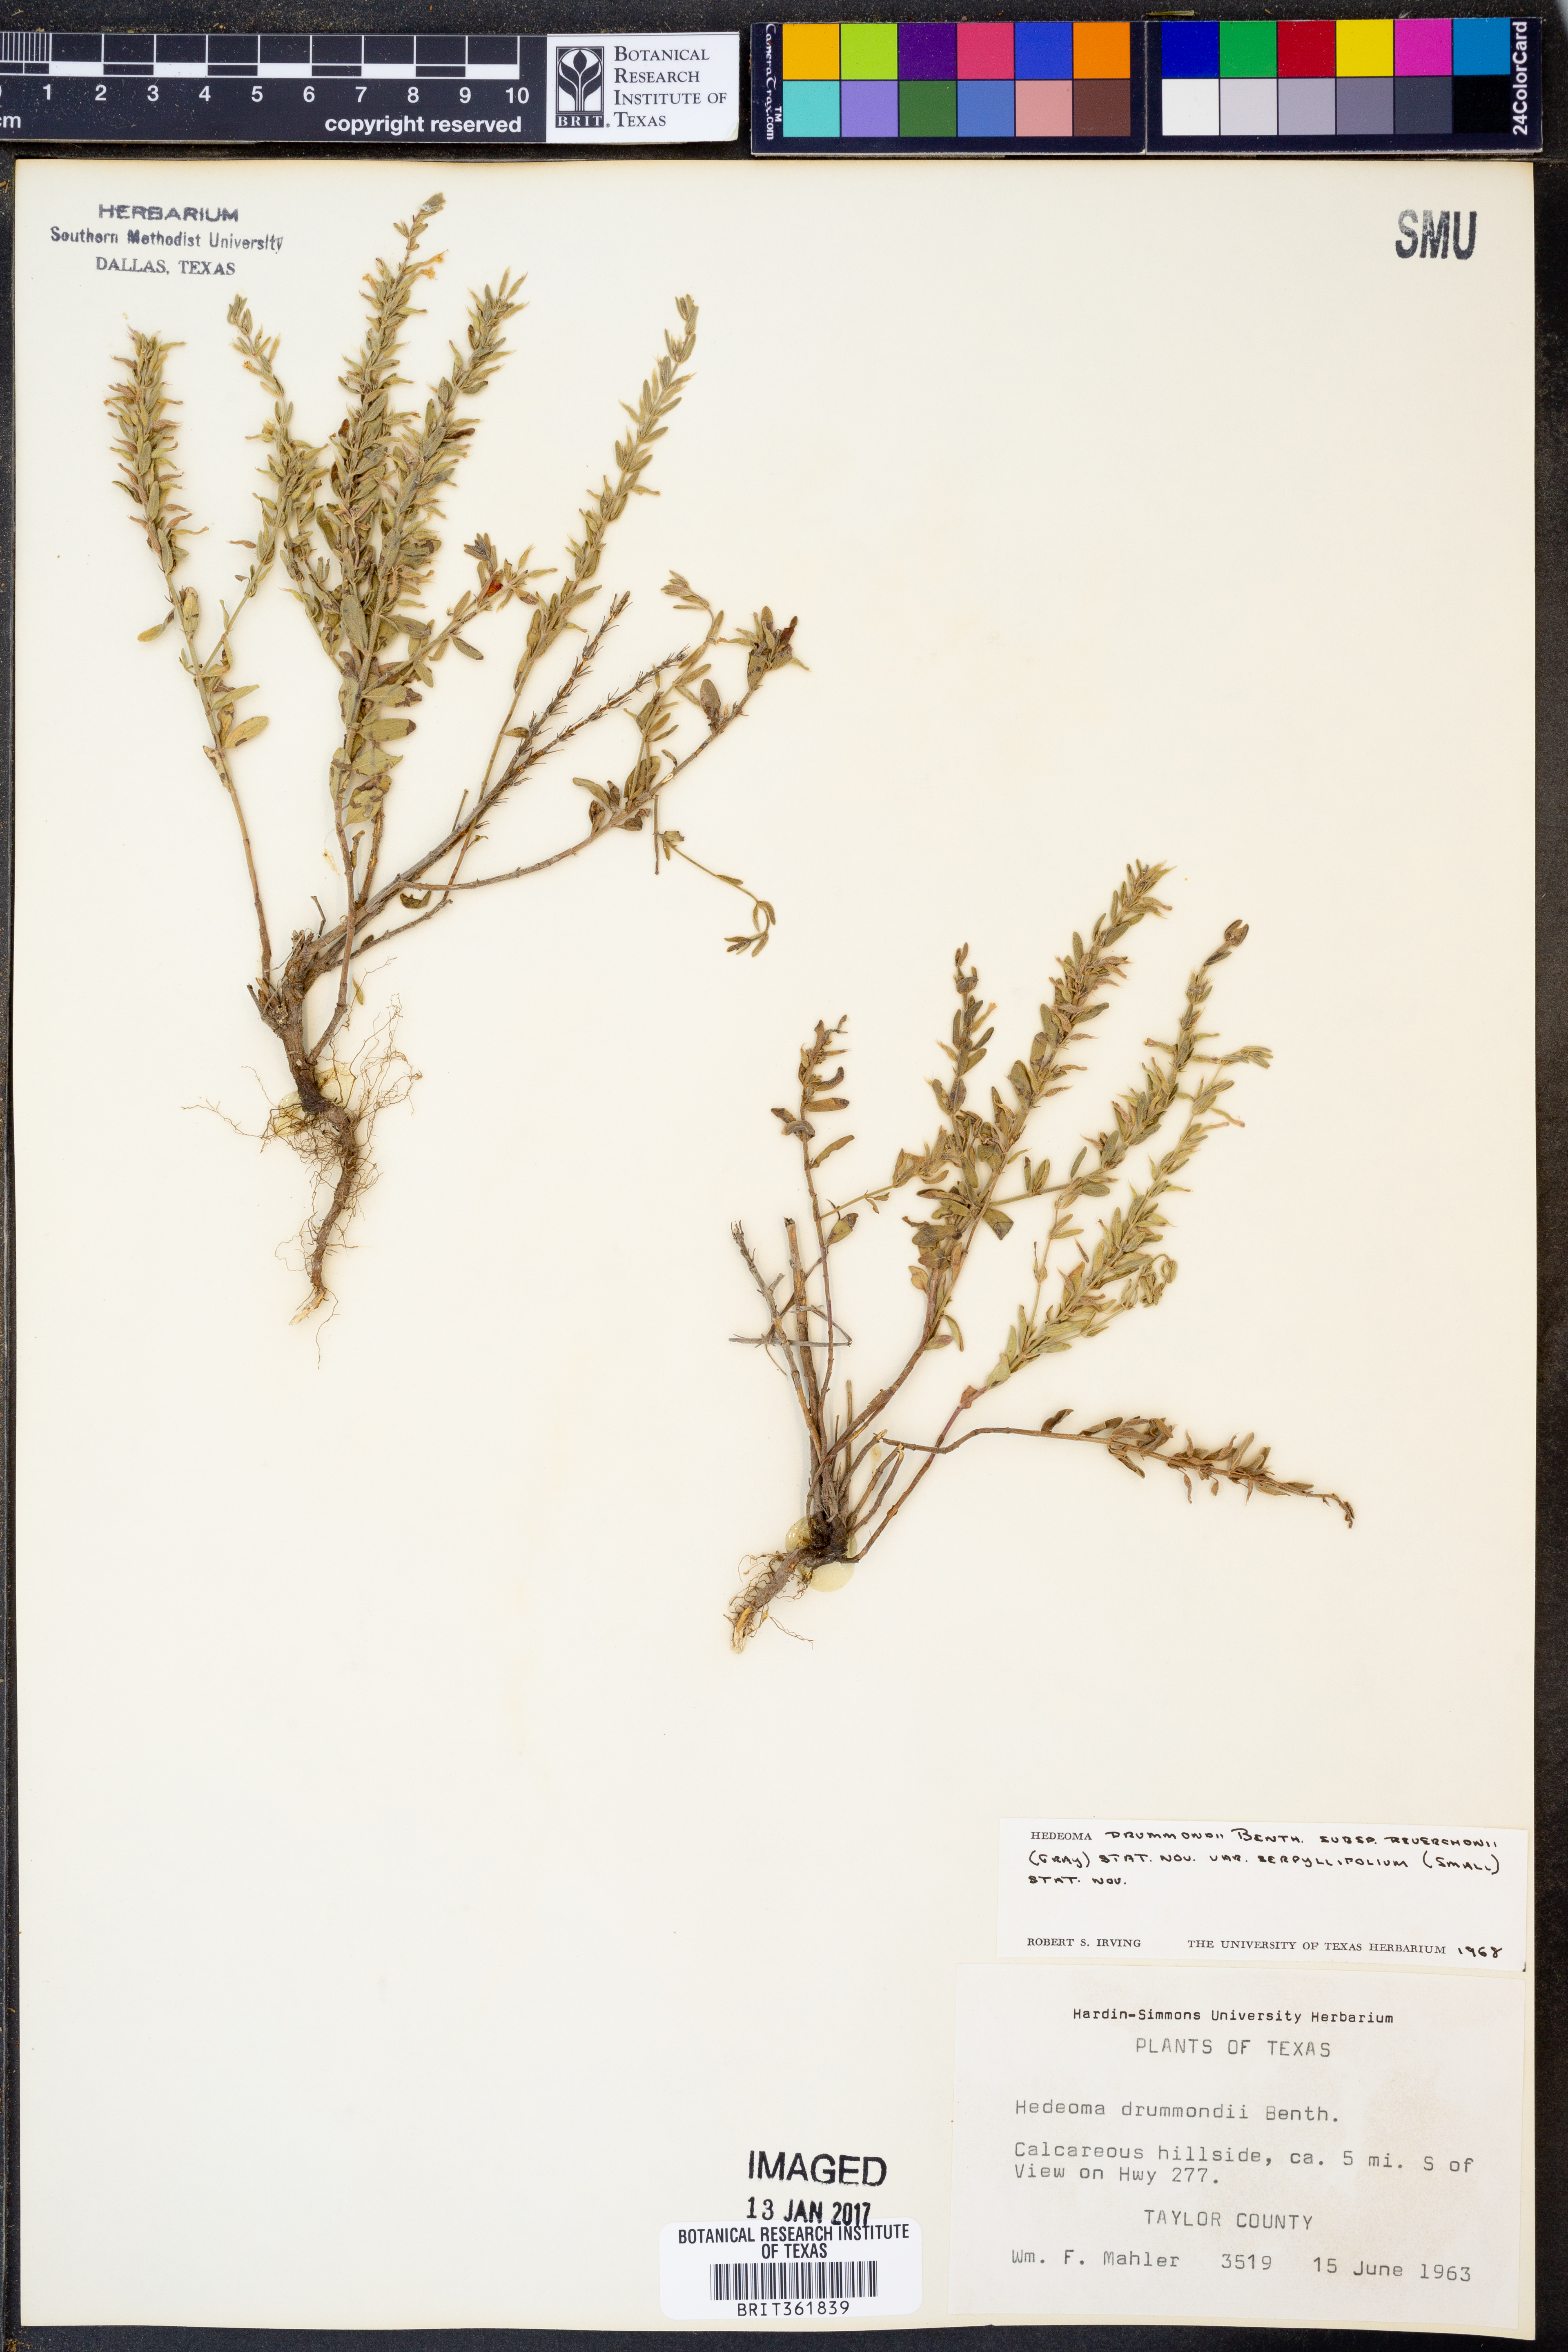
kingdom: Plantae
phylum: Tracheophyta
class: Magnoliopsida
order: Lamiales
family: Lamiaceae
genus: Hedeoma
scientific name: Hedeoma drummondii
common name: New mexico pennyroyal
